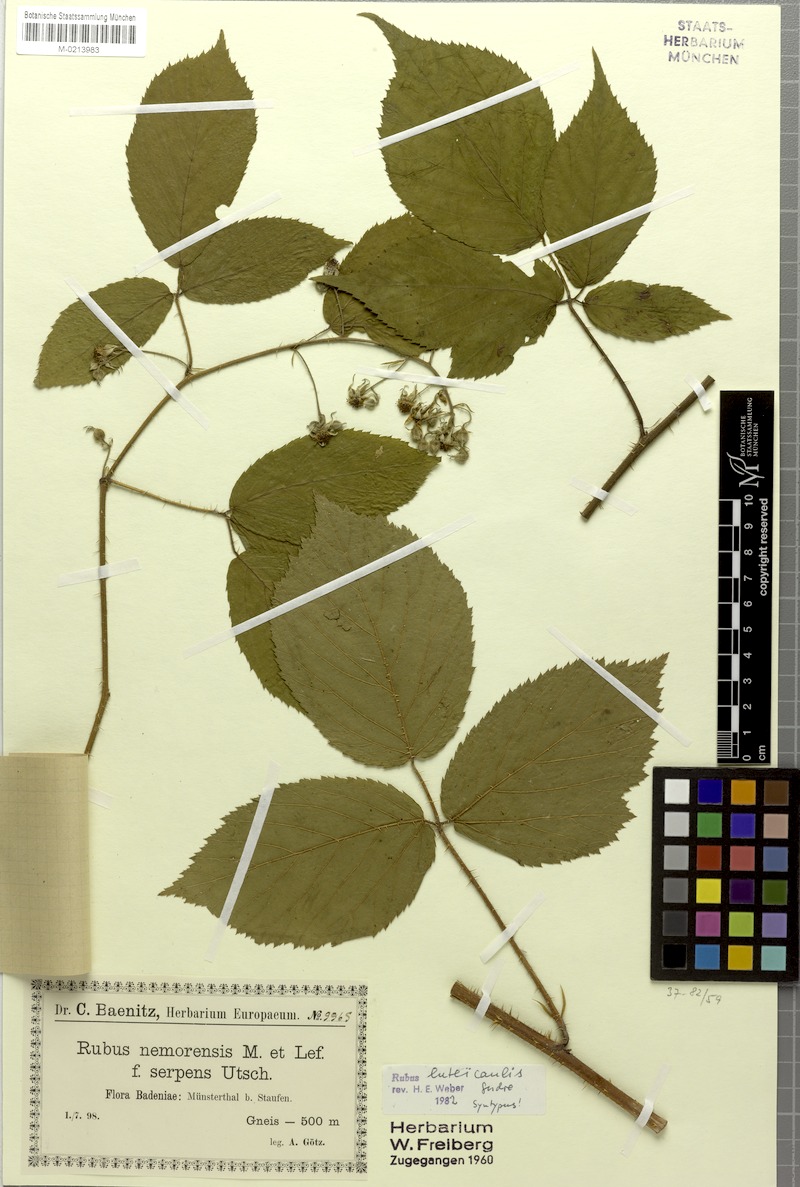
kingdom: Plantae
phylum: Tracheophyta
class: Magnoliopsida
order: Rosales
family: Rosaceae
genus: Rubus
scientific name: Rubus perplexus
